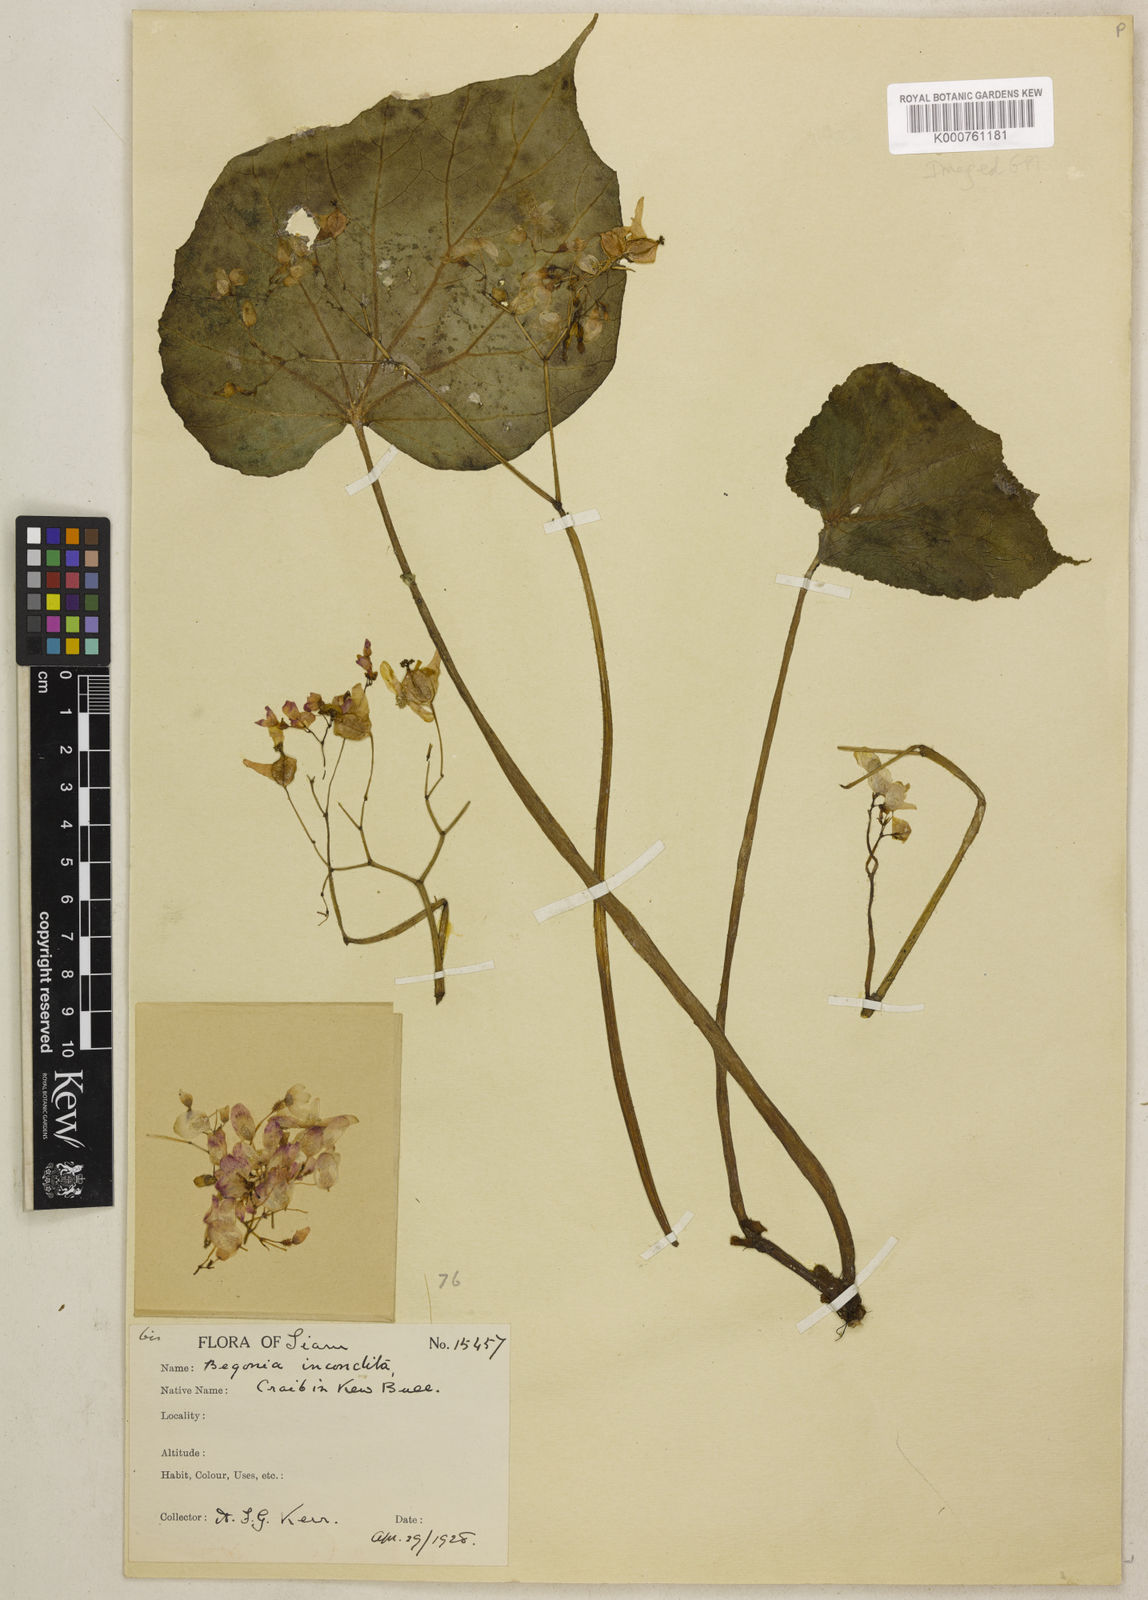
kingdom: Plantae
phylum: Tracheophyta
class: Magnoliopsida
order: Cucurbitales
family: Begoniaceae
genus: Begonia
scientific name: Begonia incondita
